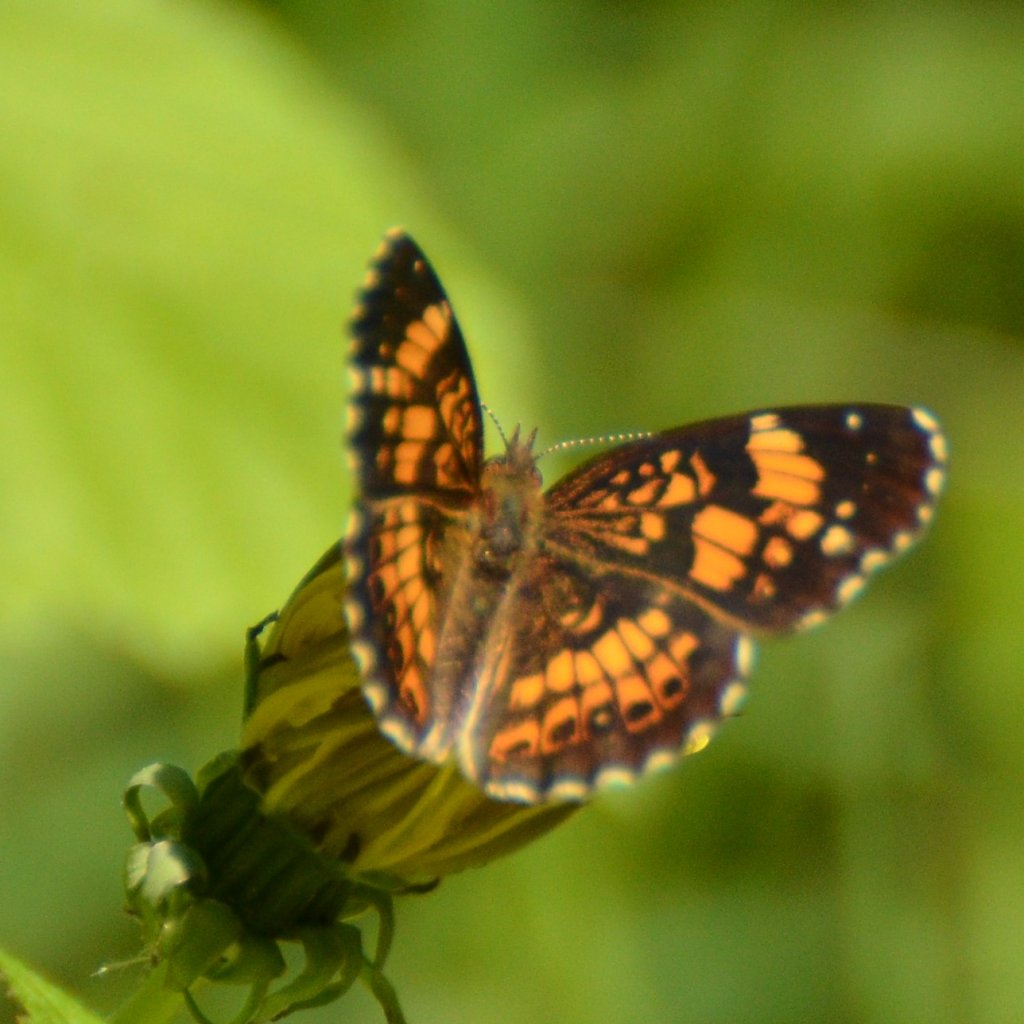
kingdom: Animalia
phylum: Arthropoda
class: Insecta
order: Lepidoptera
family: Nymphalidae
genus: Chlosyne
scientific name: Chlosyne nycteis
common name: Silvery Checkerspot
